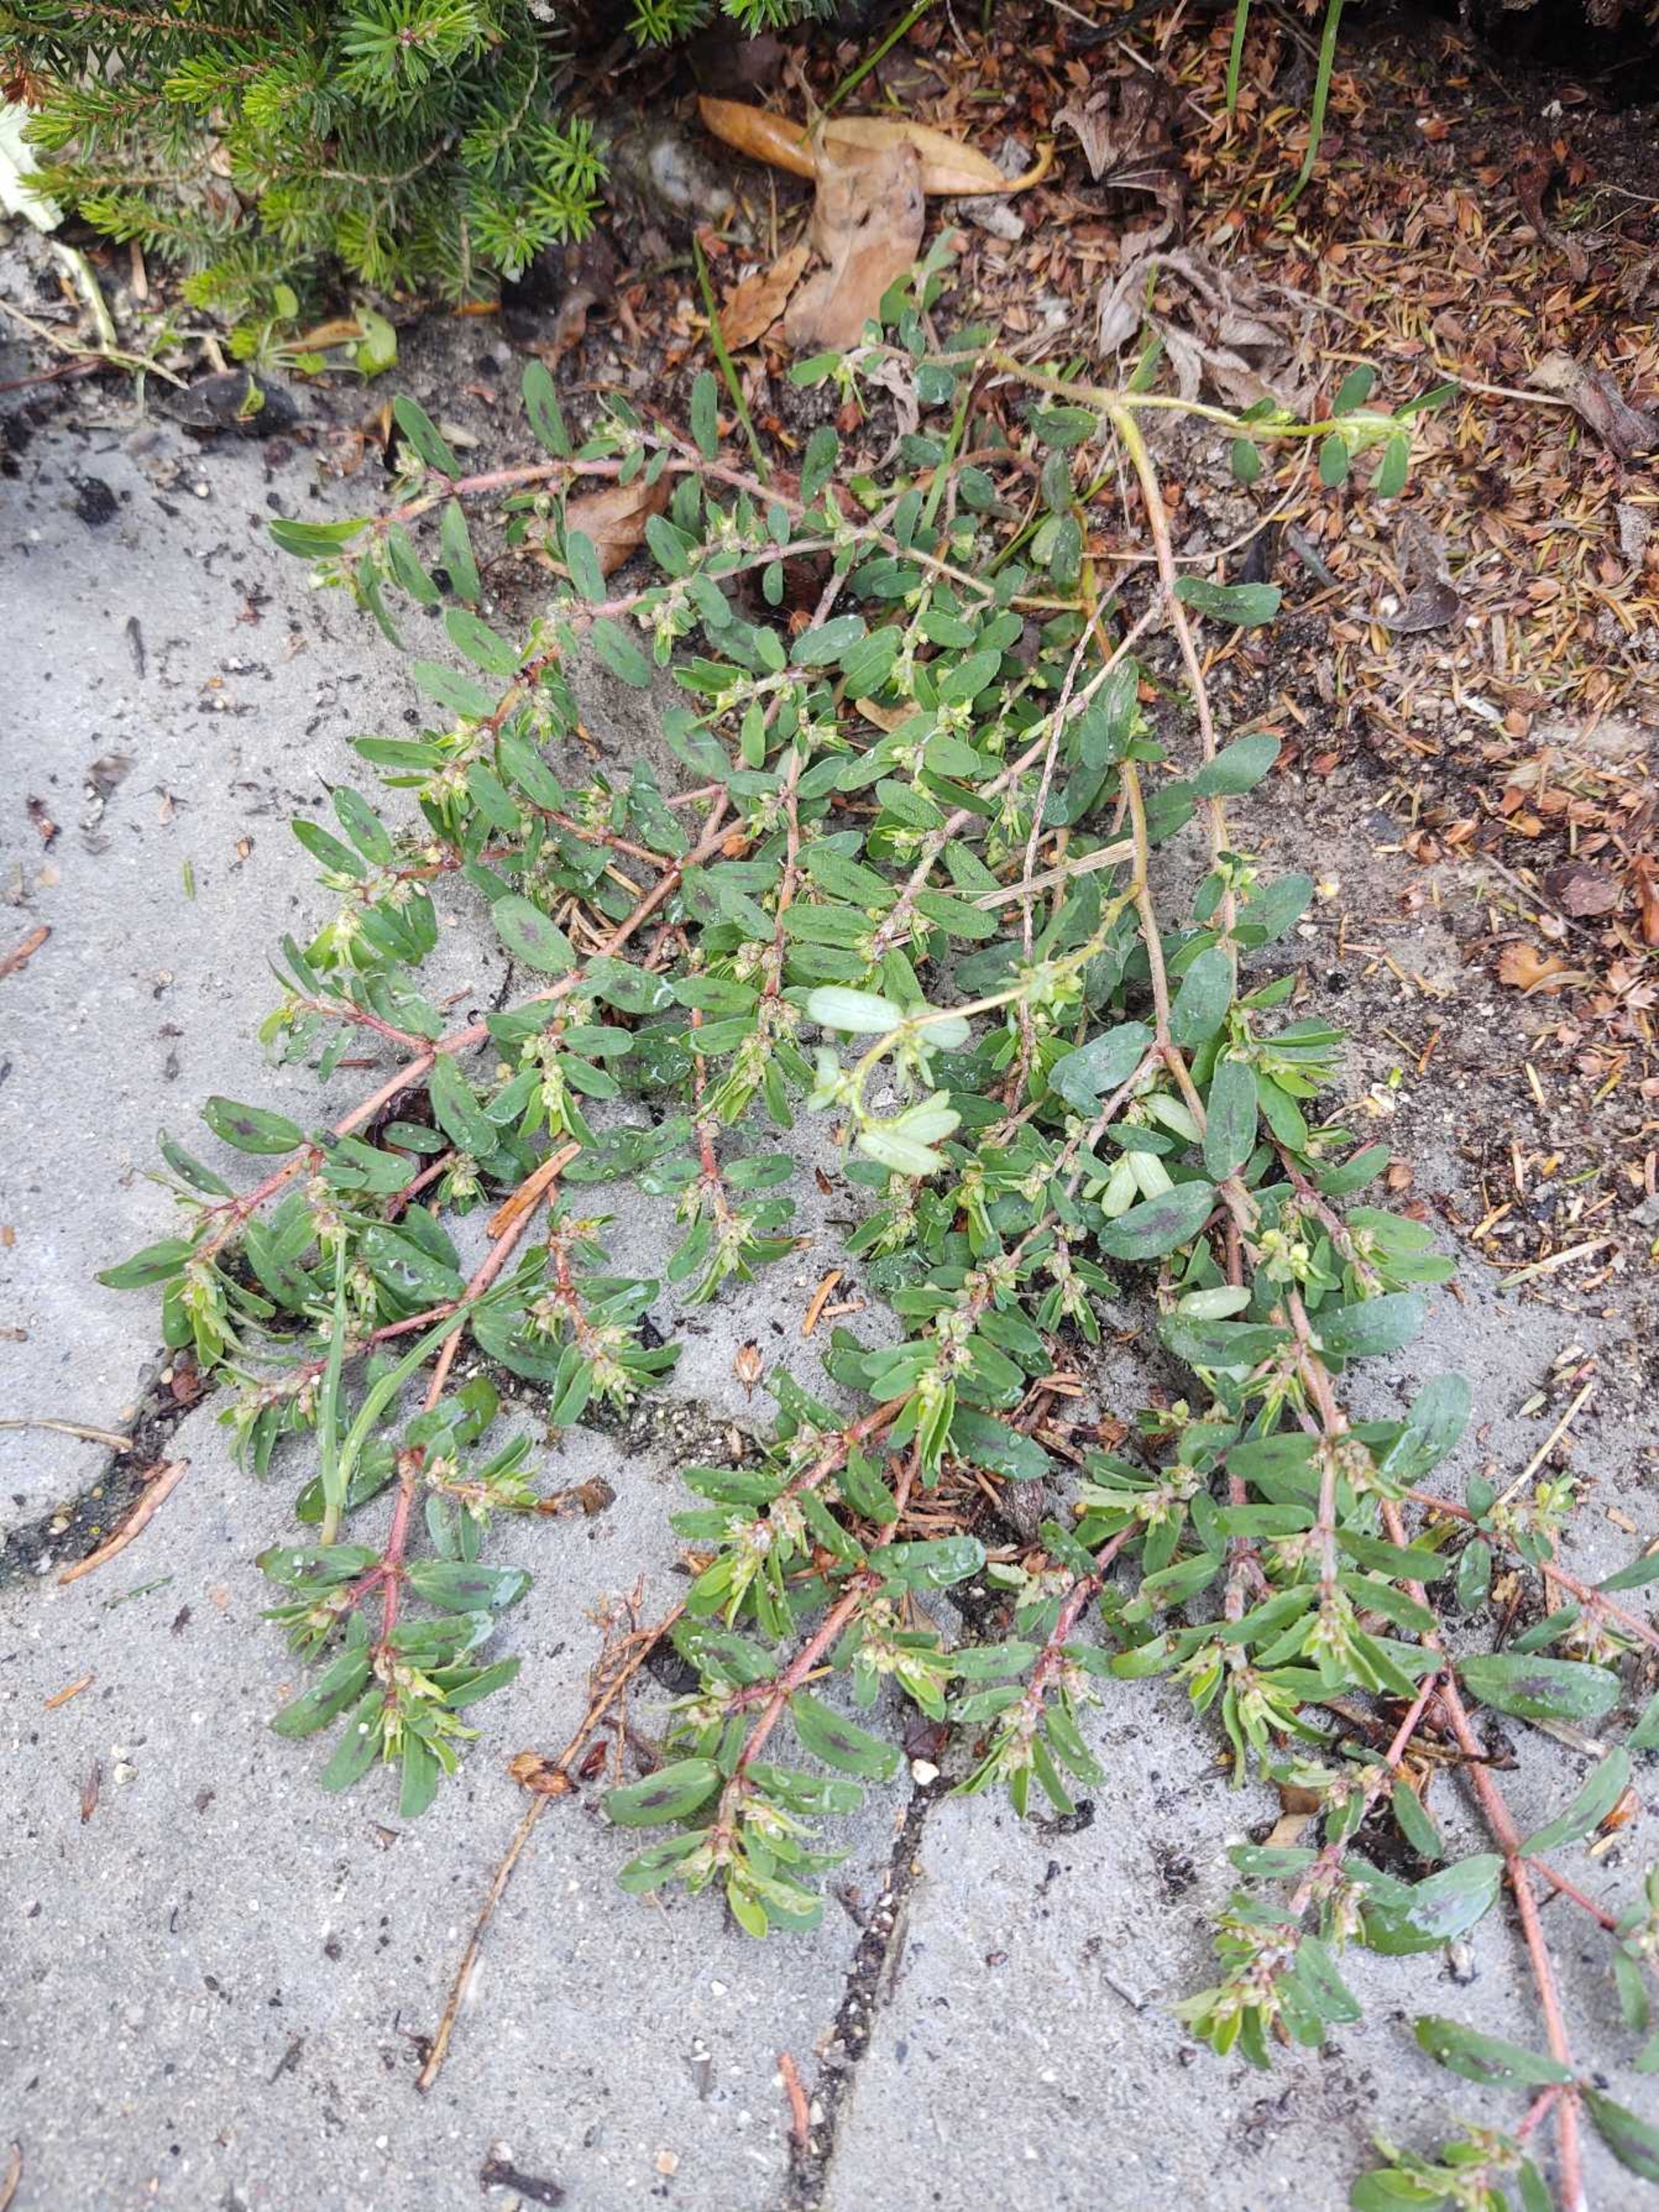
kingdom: Plantae
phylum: Tracheophyta
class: Magnoliopsida
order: Malpighiales
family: Euphorbiaceae
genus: Euphorbia
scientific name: Euphorbia maculata
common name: Plet-vortemælk
